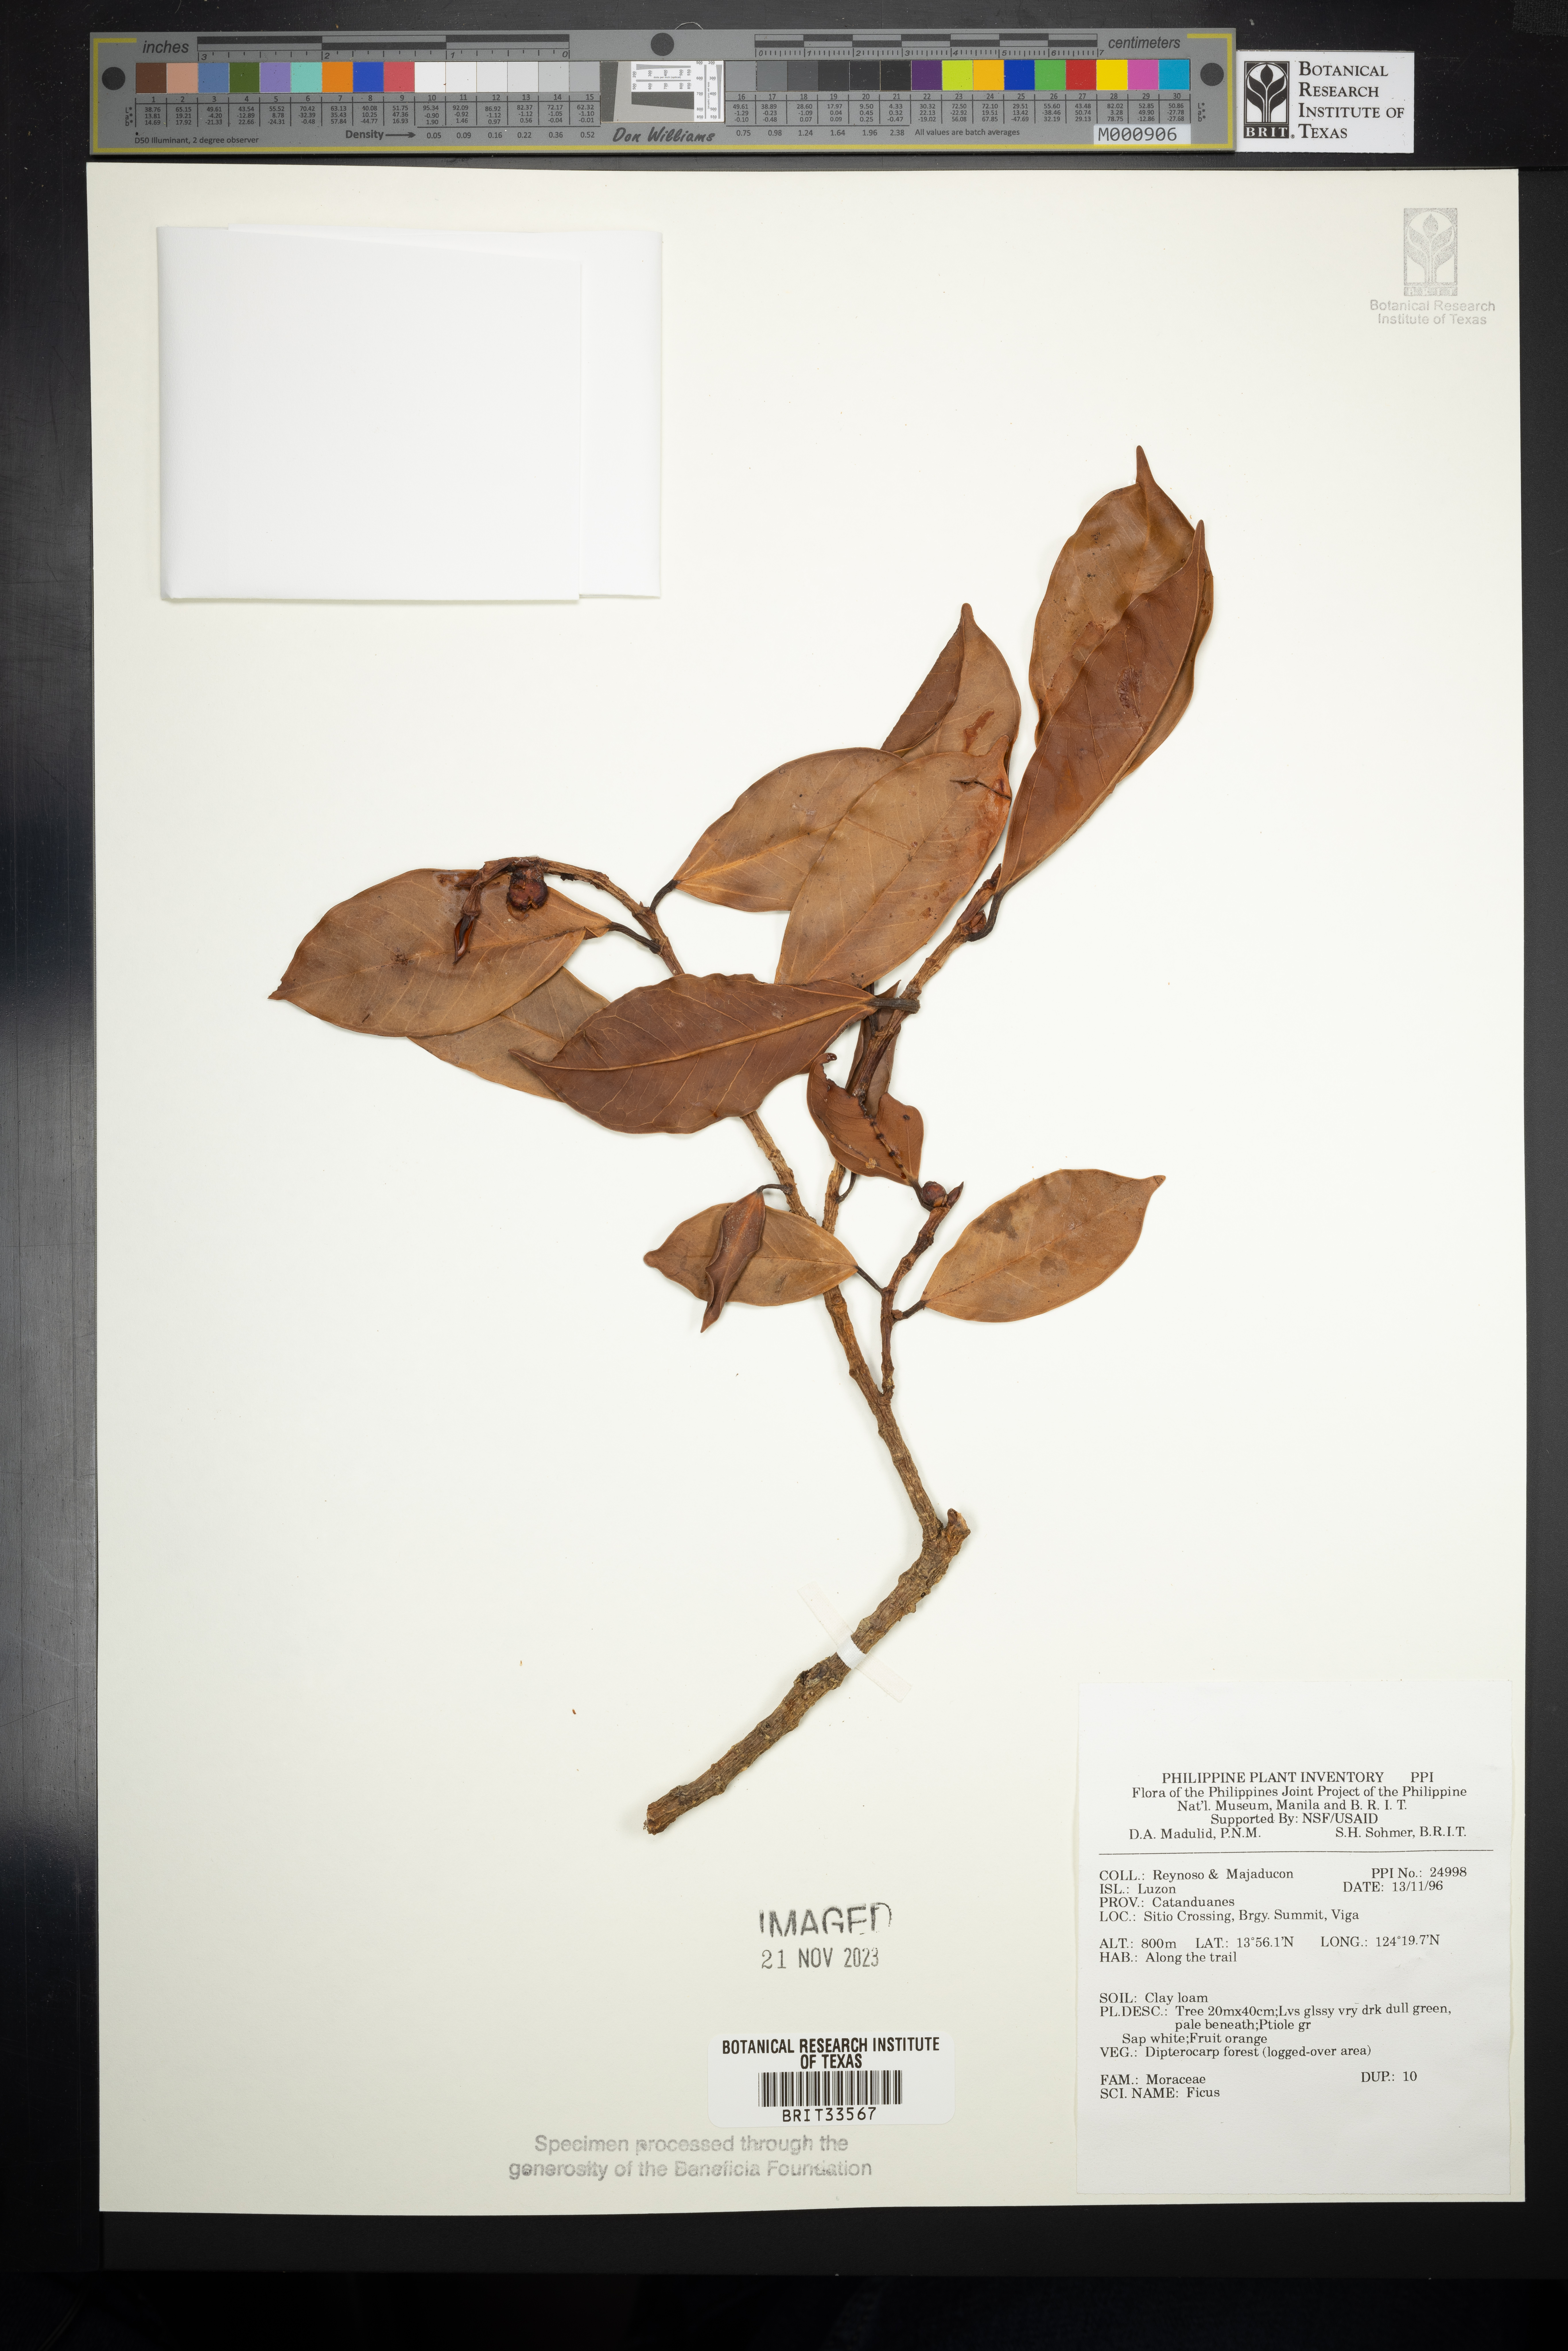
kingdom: Plantae
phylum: Tracheophyta
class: Magnoliopsida
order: Rosales
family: Moraceae
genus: Ficus
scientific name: Ficus
